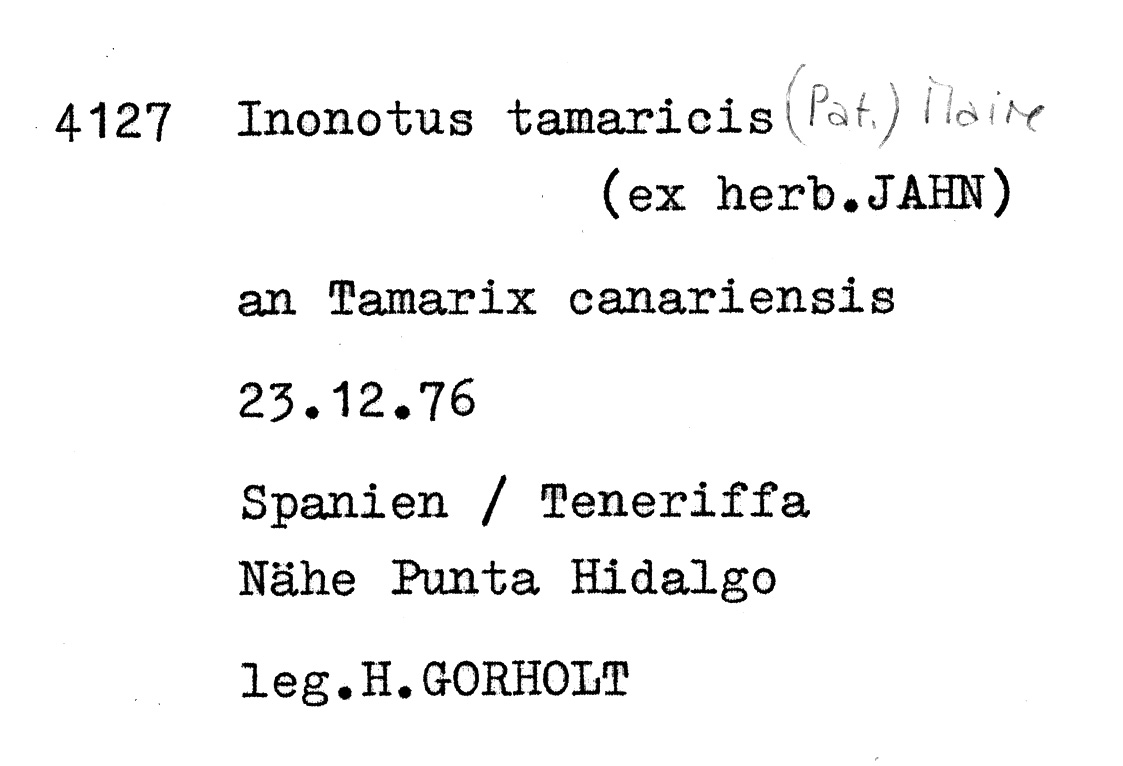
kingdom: Fungi
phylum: Basidiomycota
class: Agaricomycetes
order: Hymenochaetales
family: Hymenochaetaceae
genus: Inocutis
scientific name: Inocutis tamaricis
